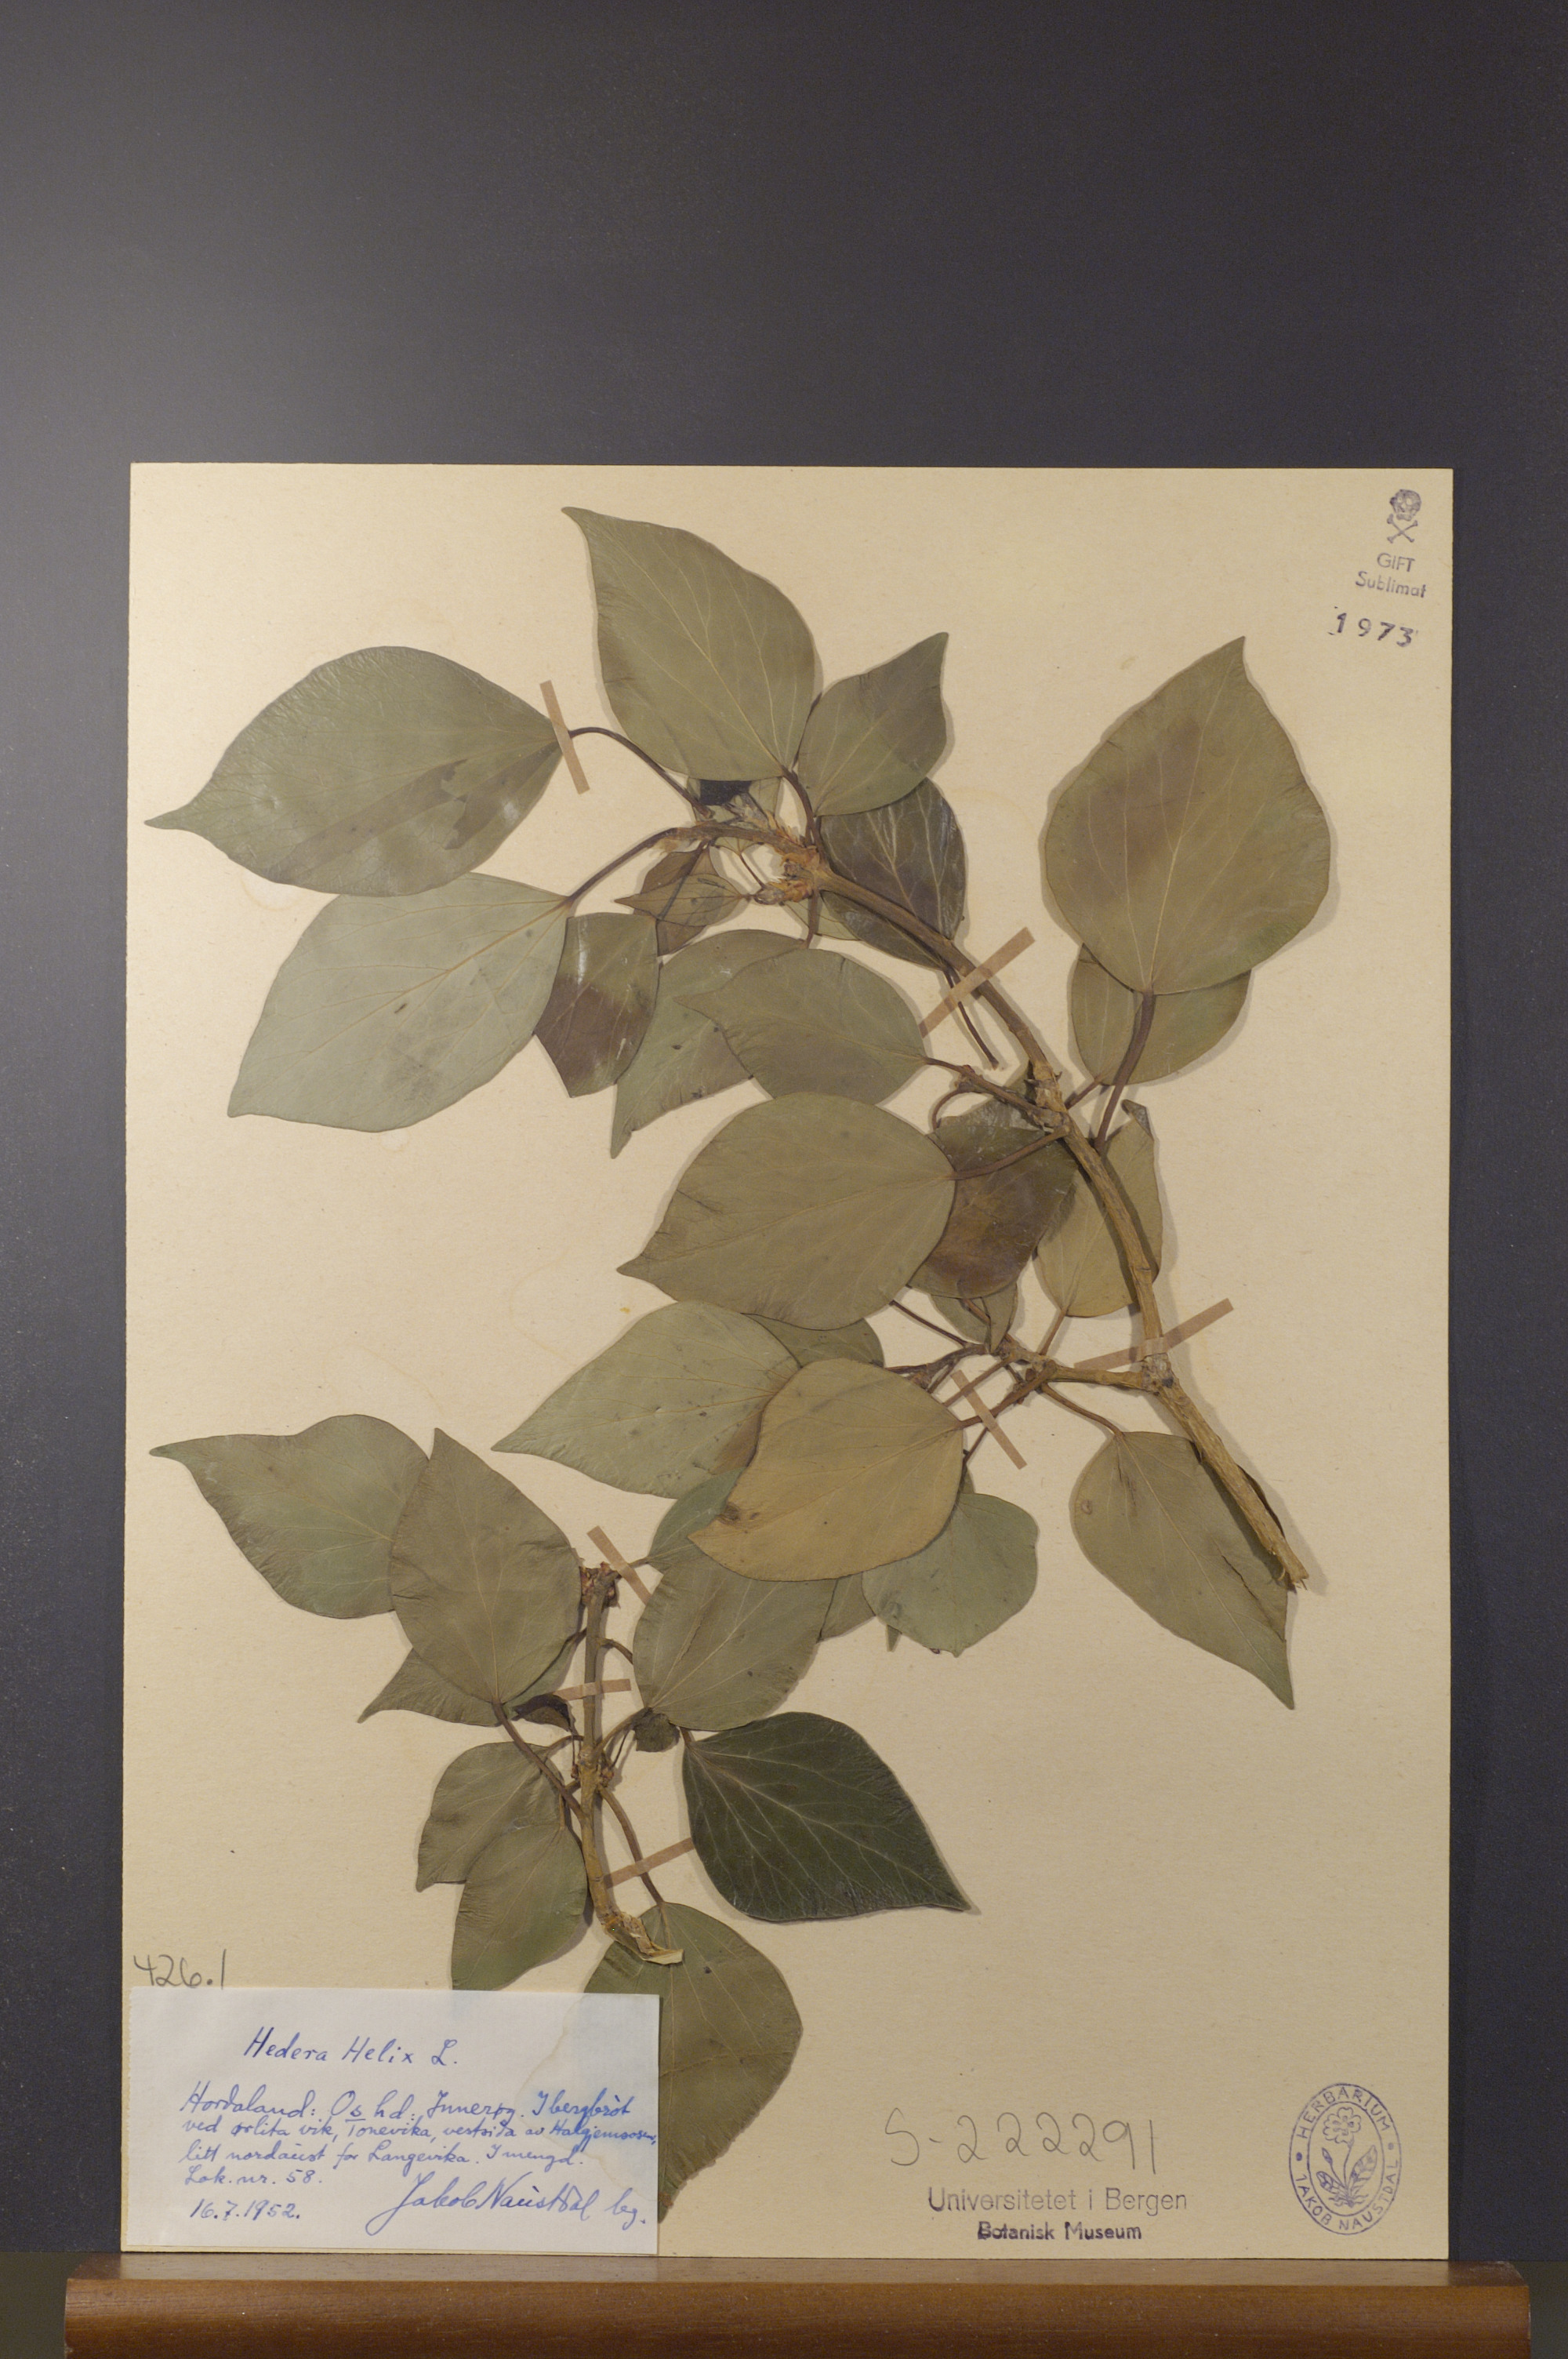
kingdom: Plantae
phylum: Tracheophyta
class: Magnoliopsida
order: Apiales
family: Araliaceae
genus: Hedera
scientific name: Hedera helix
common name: Ivy
